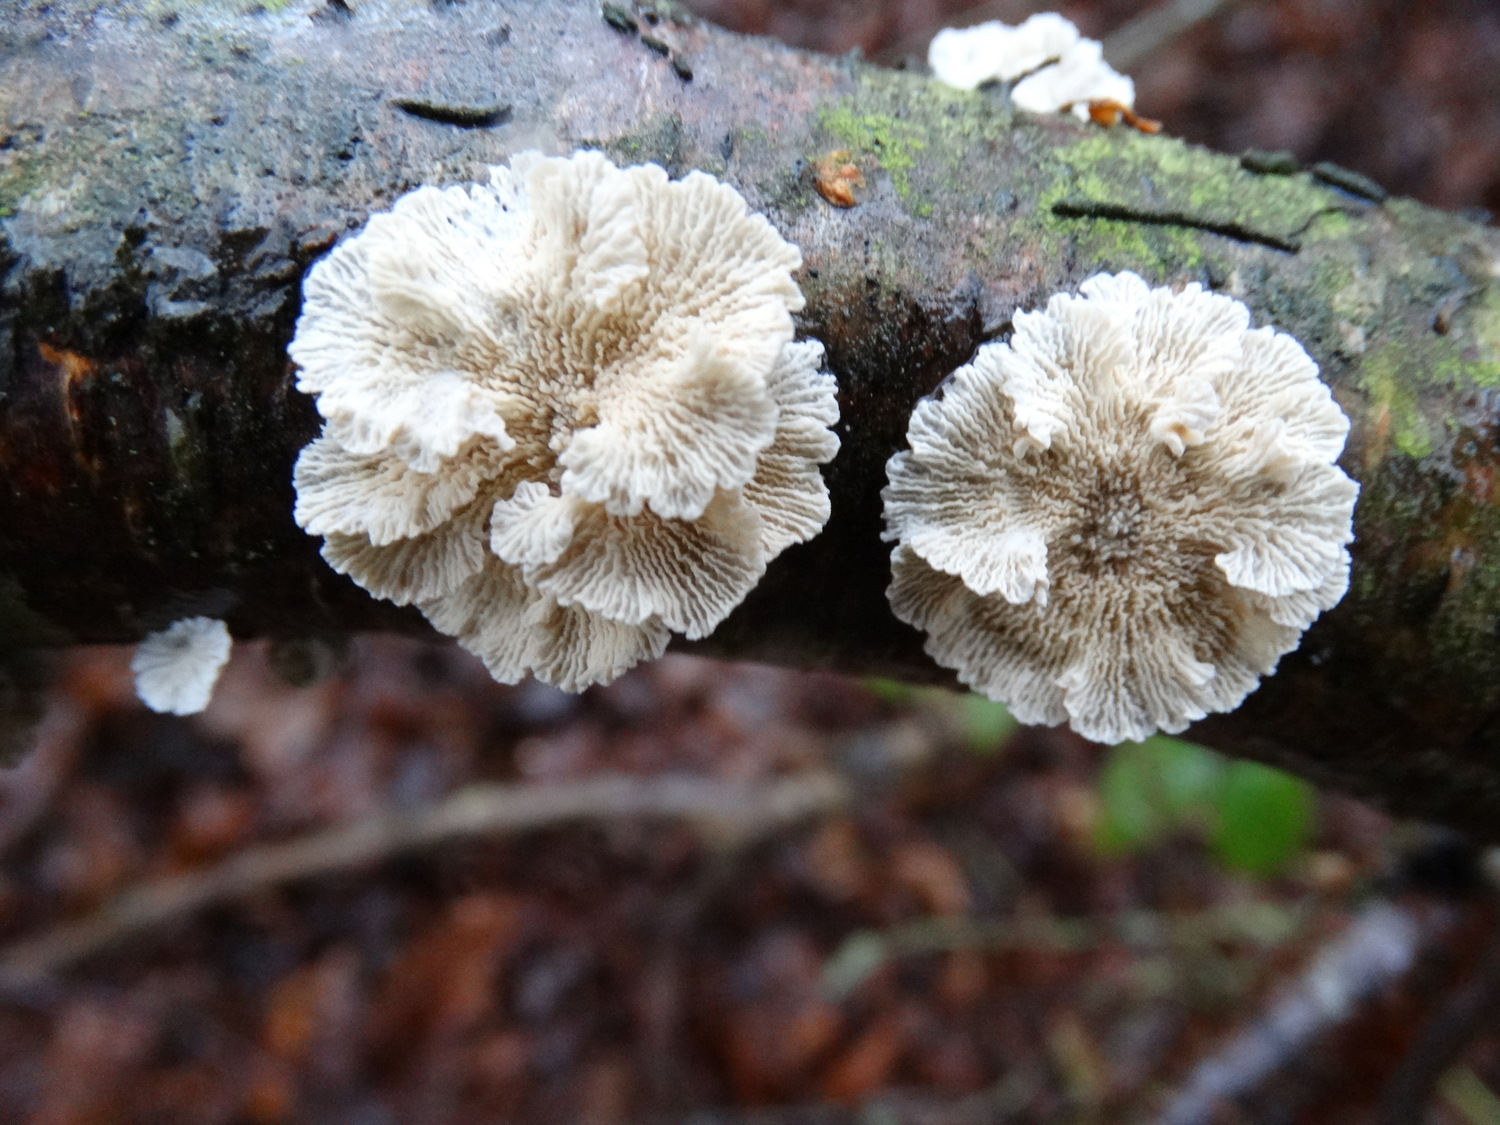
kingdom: Fungi
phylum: Basidiomycota
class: Agaricomycetes
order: Amylocorticiales
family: Amylocorticiaceae
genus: Plicaturopsis
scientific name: Plicaturopsis crispa
